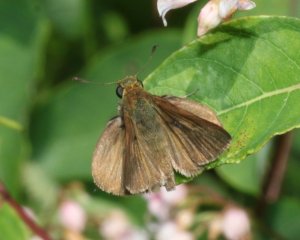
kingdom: Animalia
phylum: Arthropoda
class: Insecta
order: Lepidoptera
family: Hesperiidae
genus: Euphyes
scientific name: Euphyes vestris
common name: Dun Skipper
